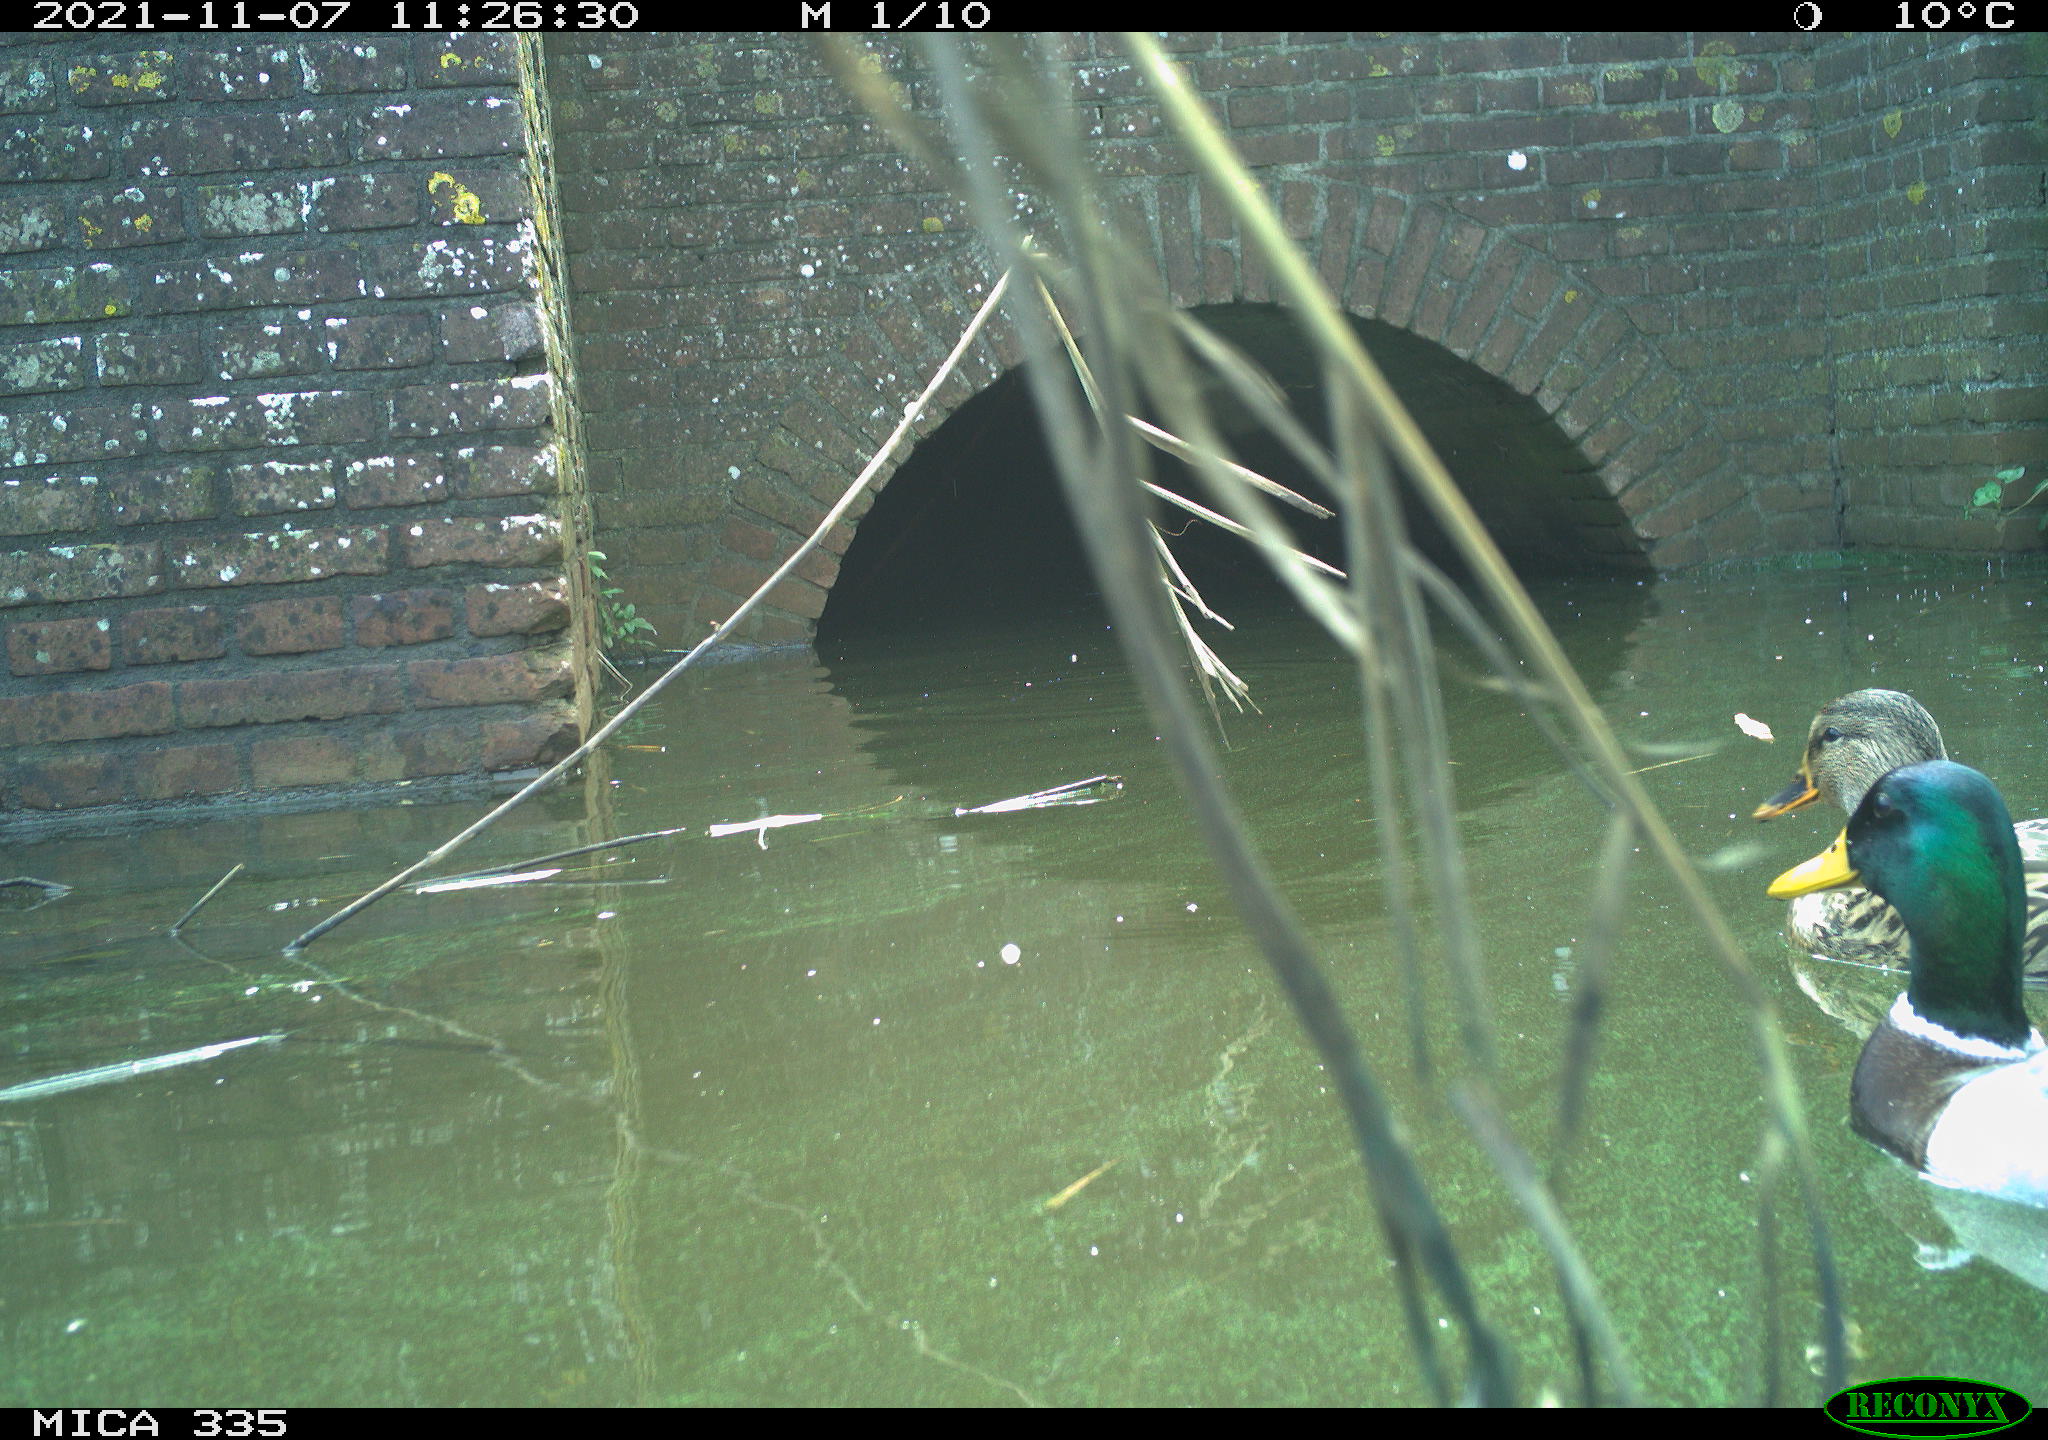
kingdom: Animalia
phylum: Chordata
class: Aves
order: Gruiformes
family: Rallidae
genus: Fulica
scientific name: Fulica atra
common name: Eurasian coot
